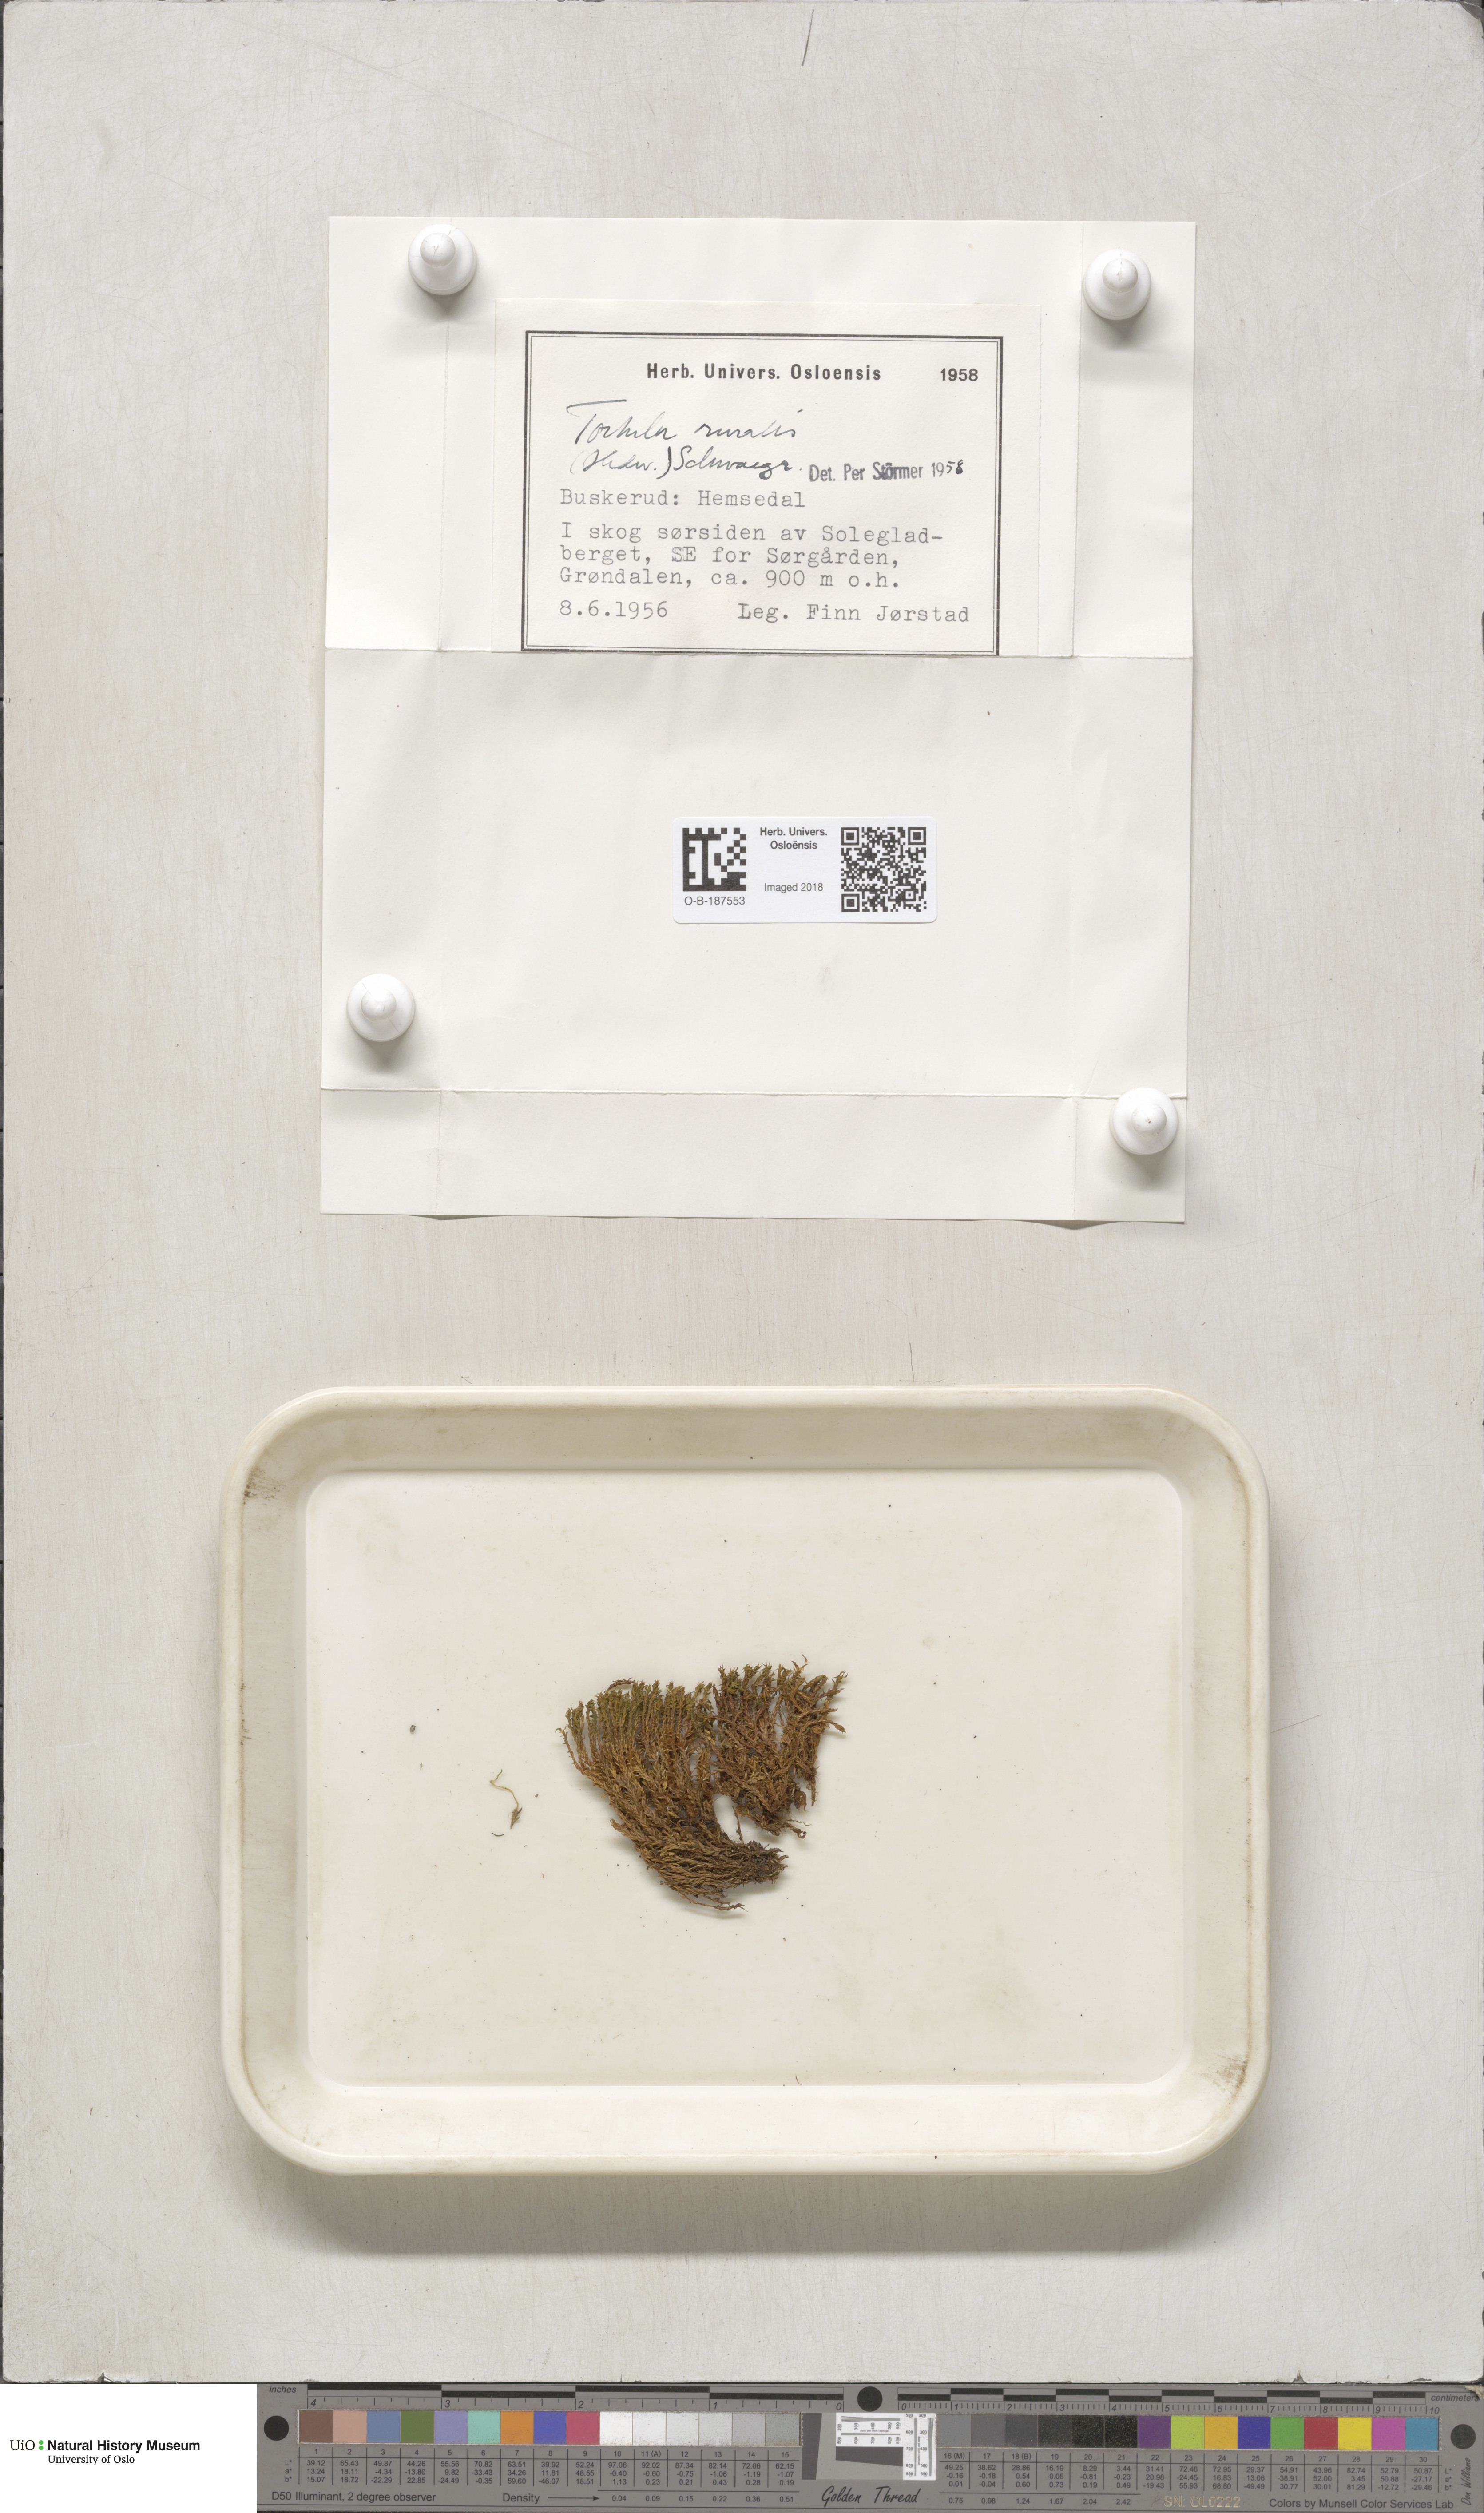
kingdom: Plantae
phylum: Bryophyta
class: Bryopsida
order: Pottiales
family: Pottiaceae
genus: Syntrichia
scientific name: Syntrichia ruralis
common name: Sidewalk screw moss
